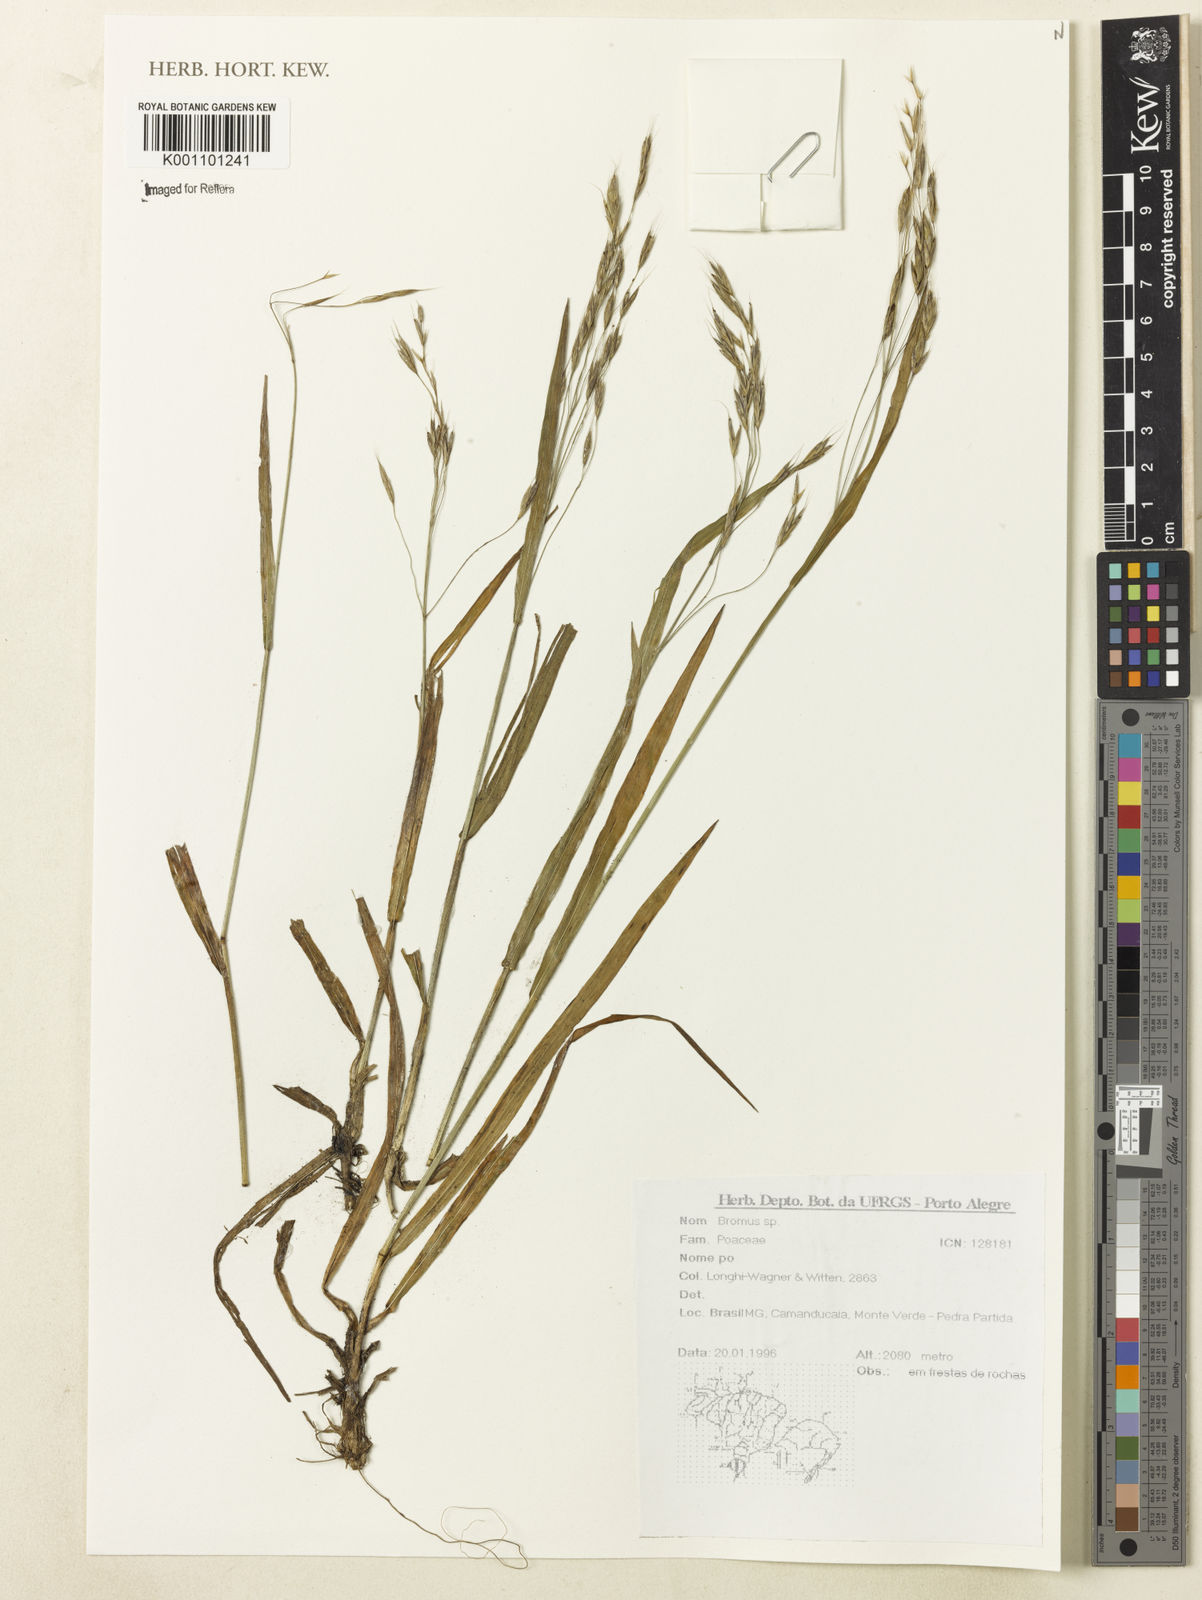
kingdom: Plantae
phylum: Tracheophyta
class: Liliopsida
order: Poales
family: Poaceae
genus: Bromus
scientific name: Bromus
